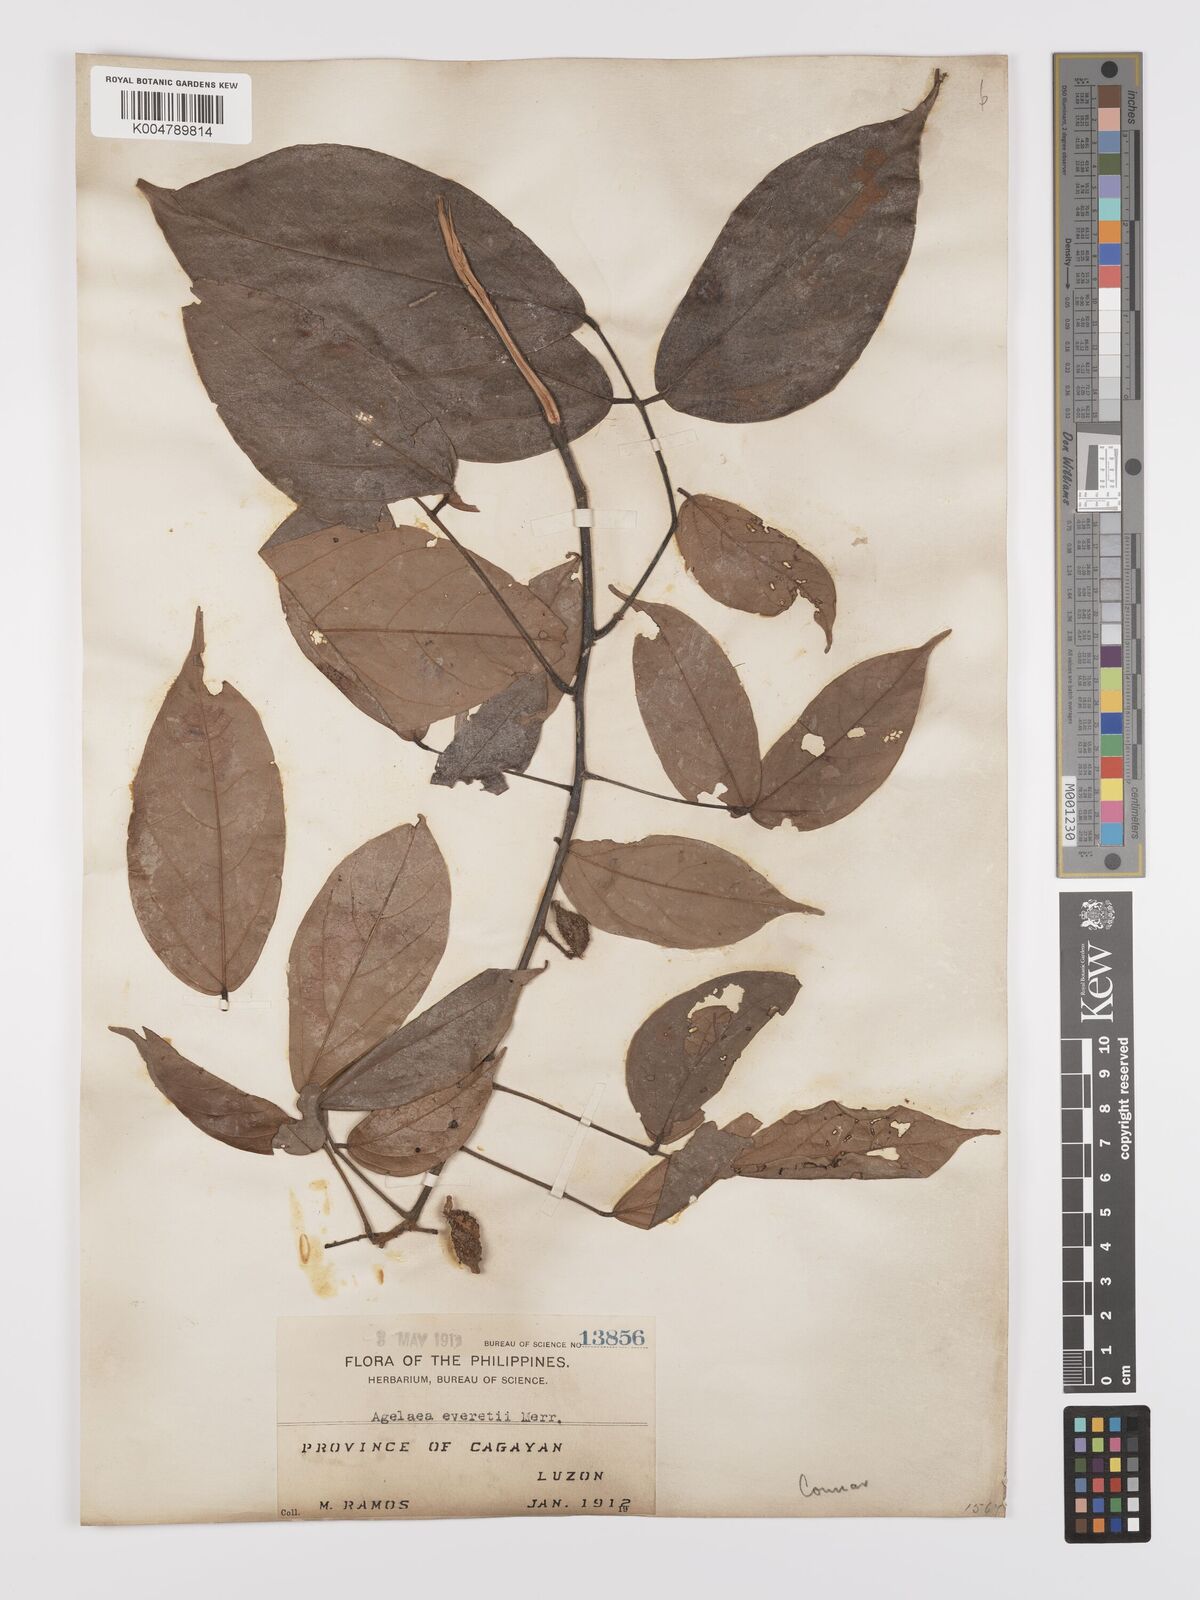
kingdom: Plantae
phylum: Tracheophyta
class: Magnoliopsida
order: Oxalidales
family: Connaraceae
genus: Agelaea
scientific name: Agelaea borneensis
